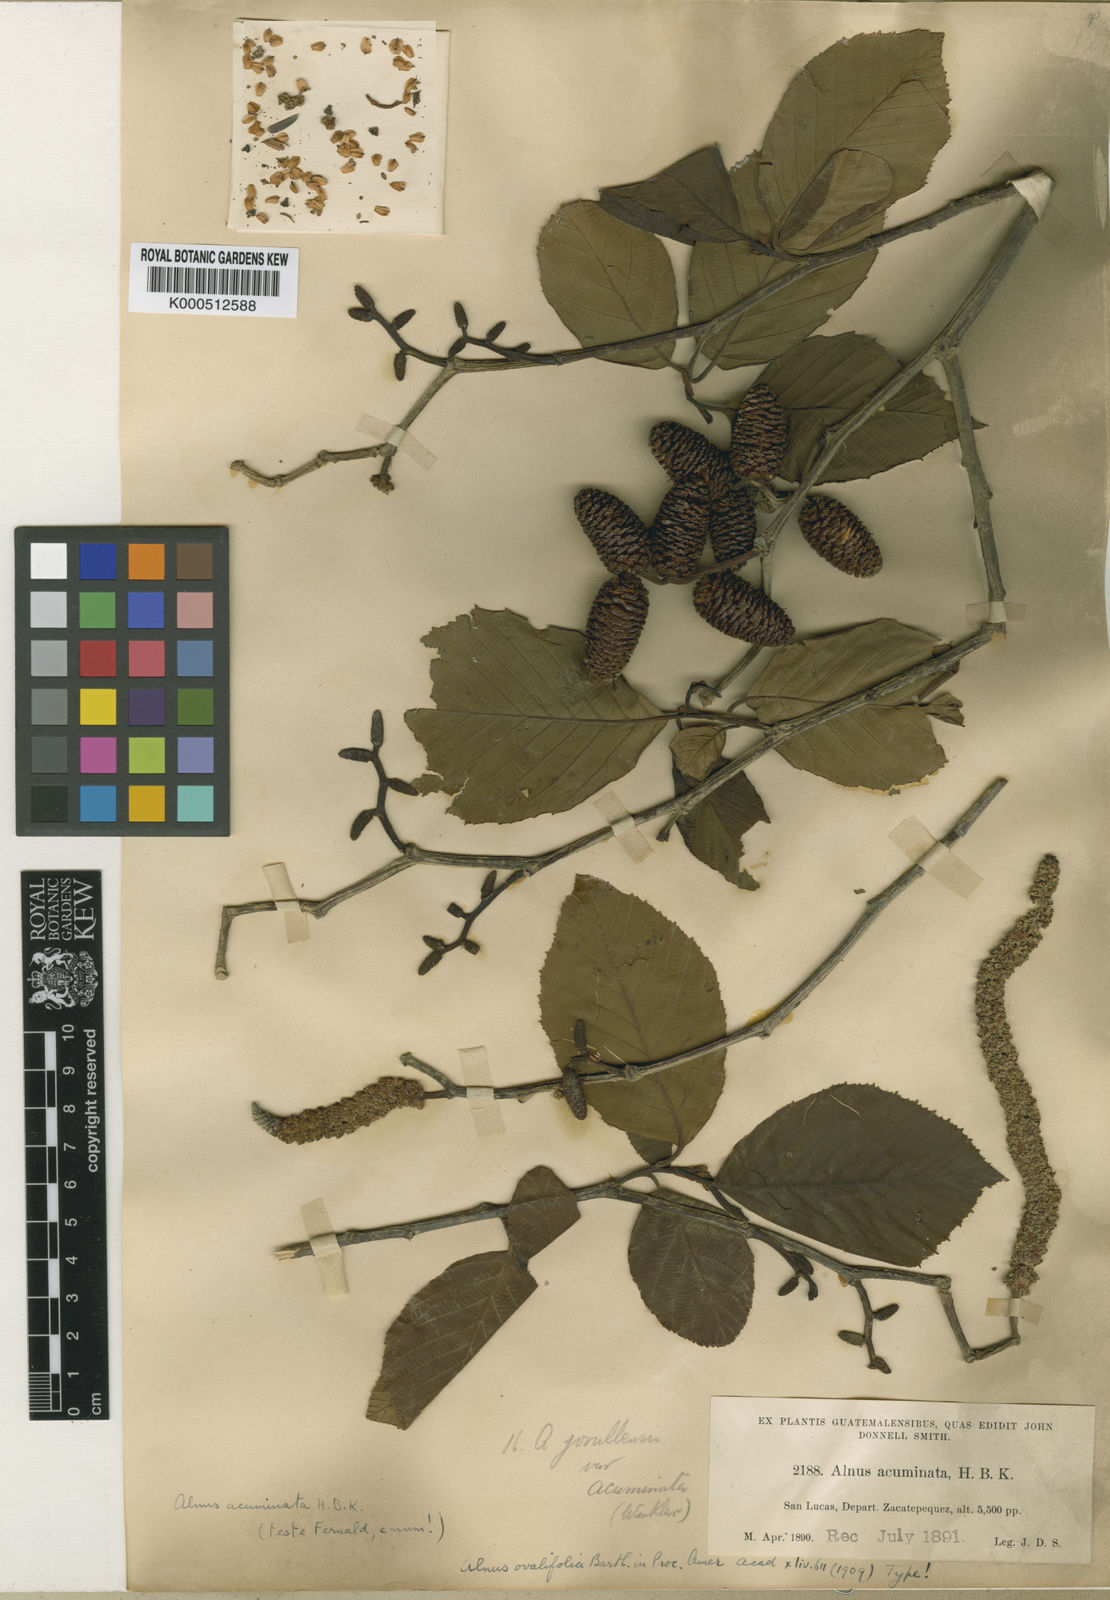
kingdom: Plantae
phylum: Tracheophyta
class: Magnoliopsida
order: Fagales
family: Betulaceae
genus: Alnus
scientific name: Alnus acuminata
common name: Alder
